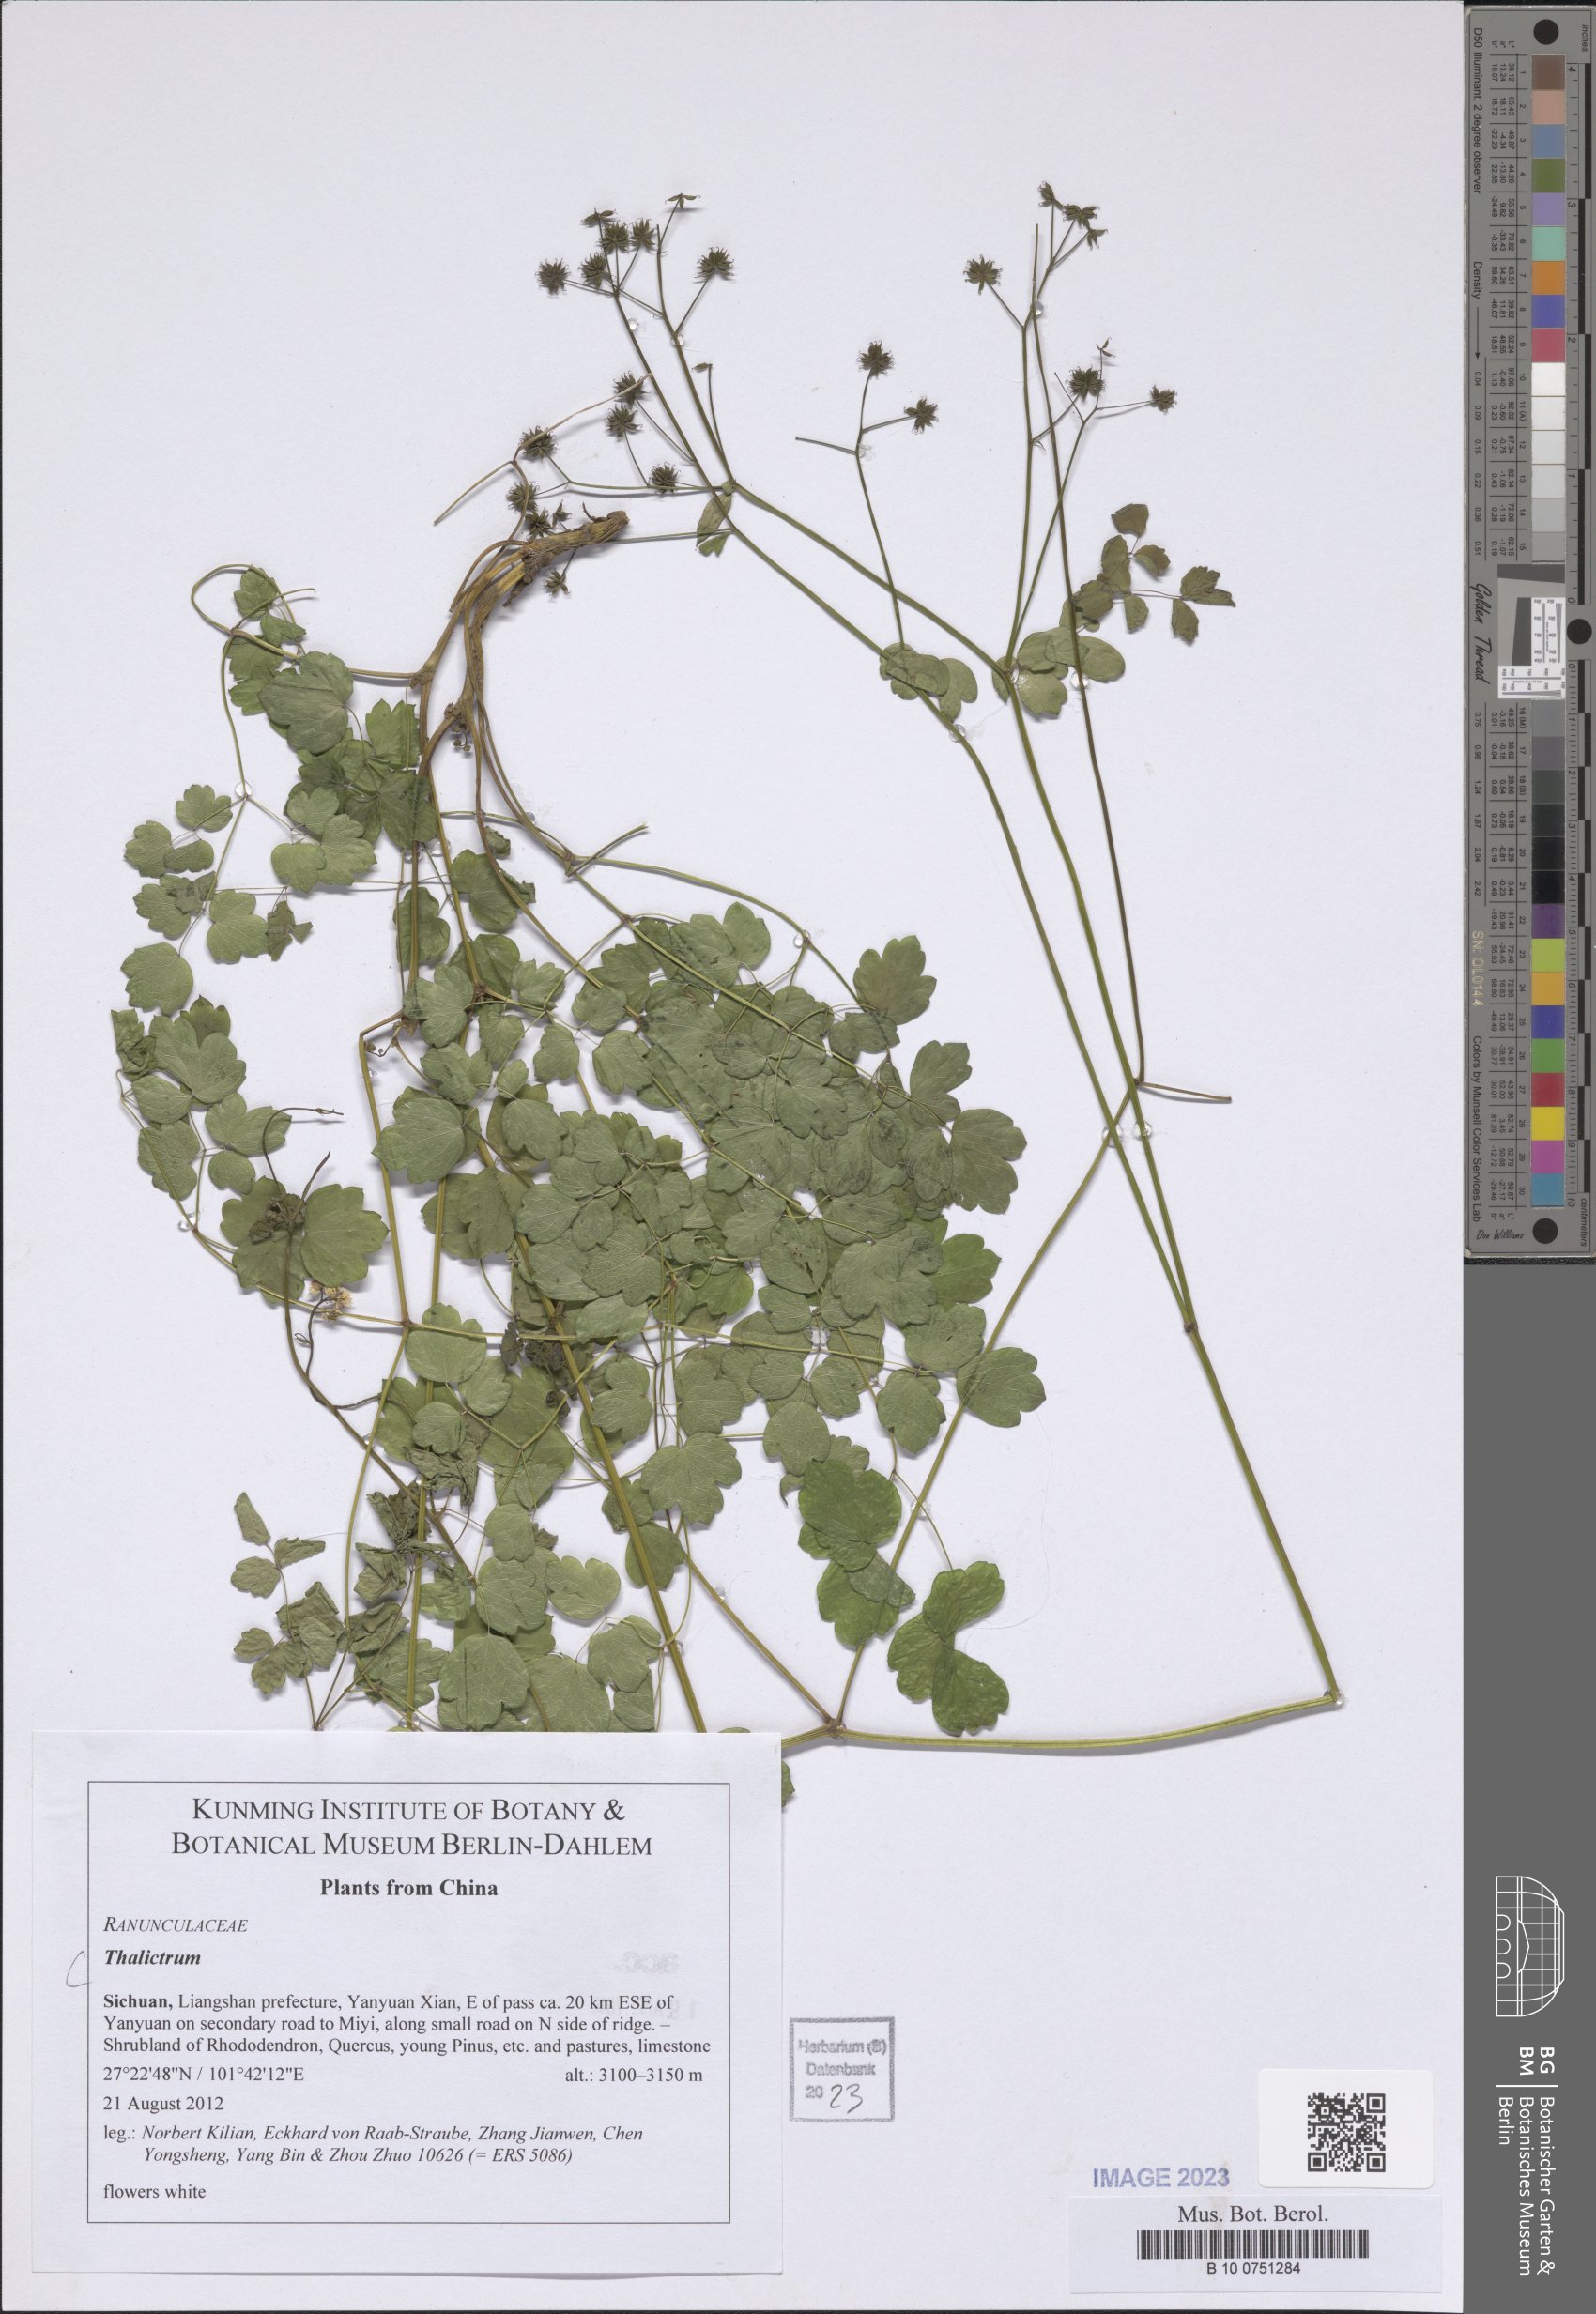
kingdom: Plantae
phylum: Tracheophyta
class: Magnoliopsida
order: Ranunculales
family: Ranunculaceae
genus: Thalictrum
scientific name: Thalictrum
